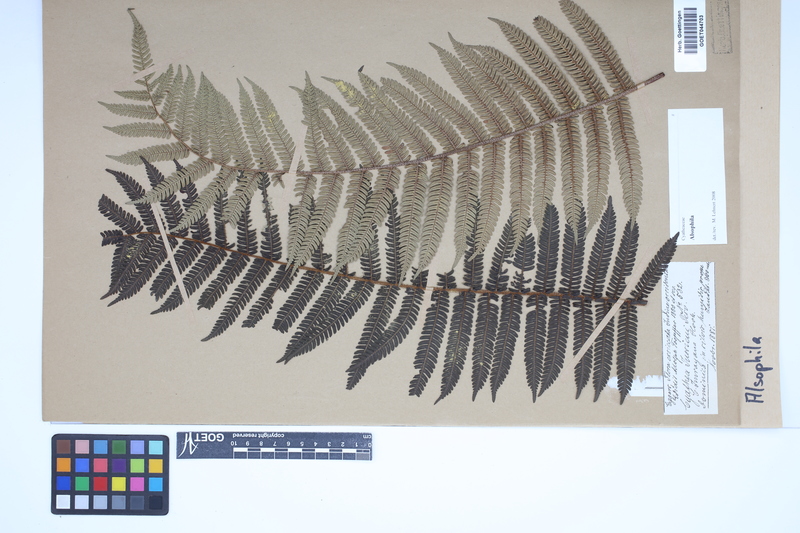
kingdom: Plantae
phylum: Tracheophyta
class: Polypodiopsida
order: Cyatheales
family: Cyatheaceae
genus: Alsophila
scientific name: Alsophila
